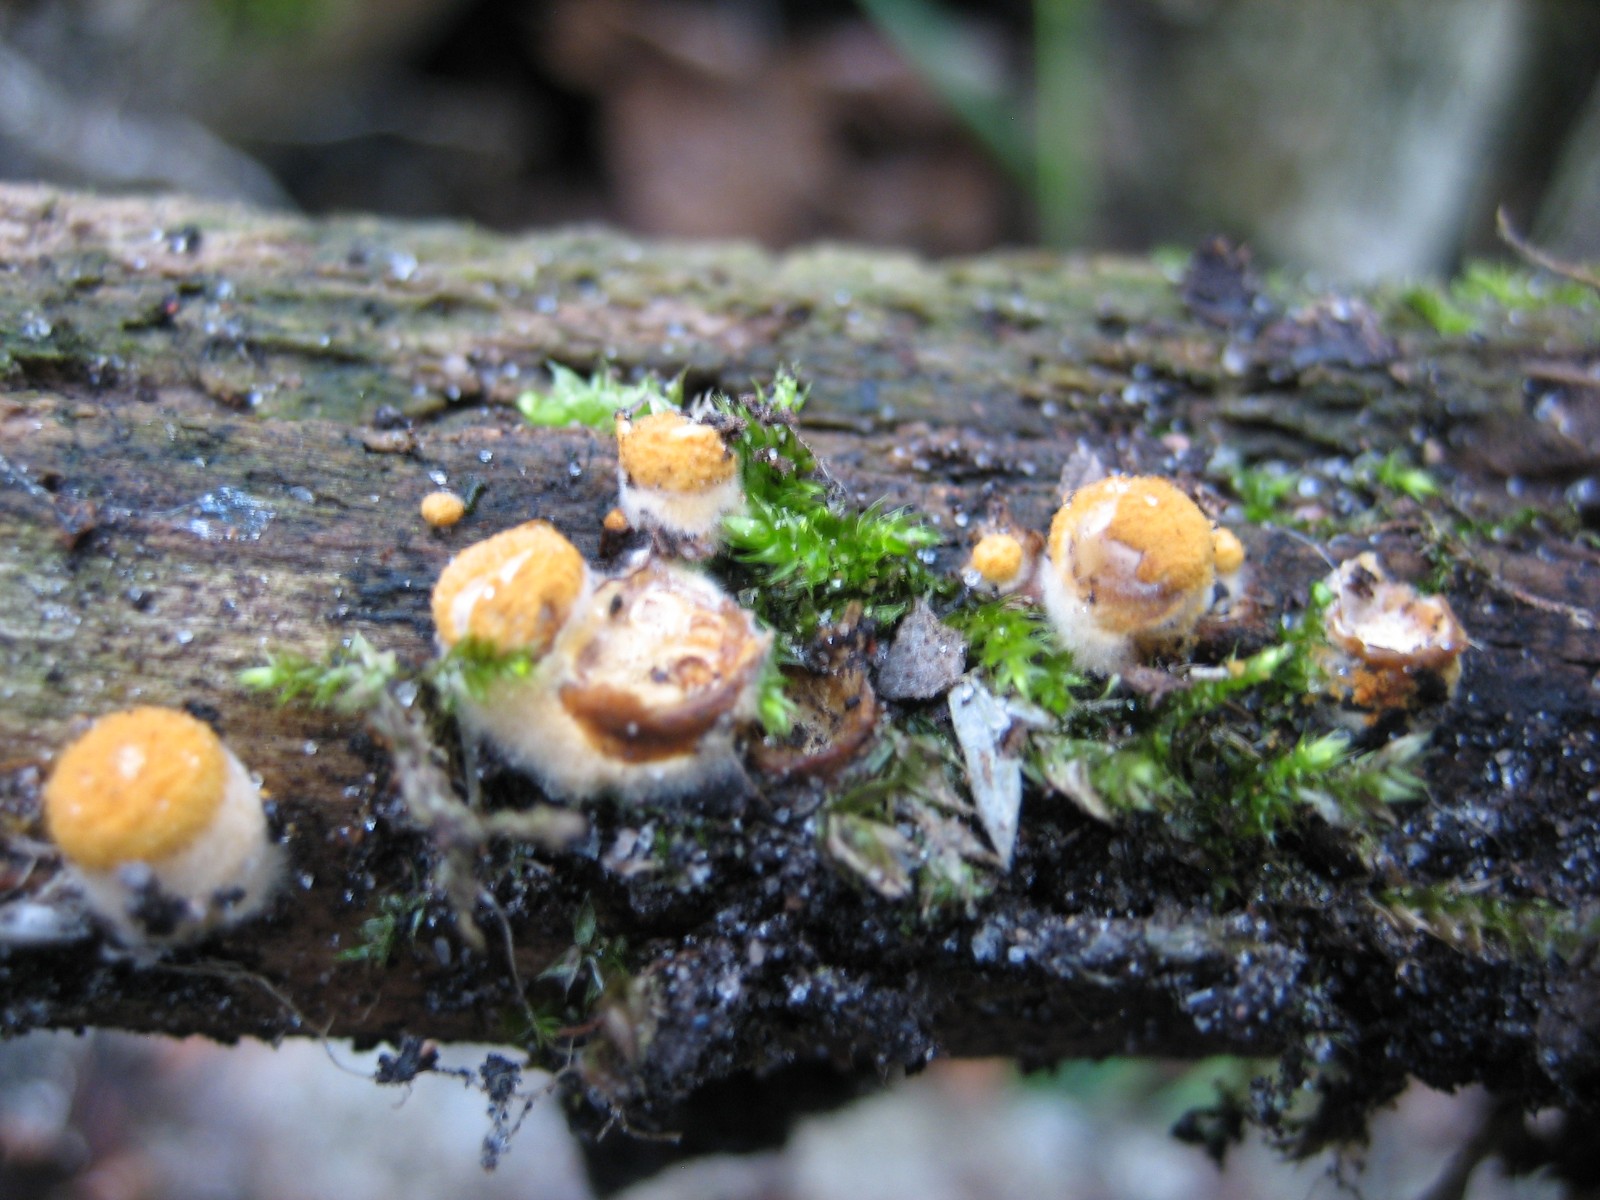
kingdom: Fungi
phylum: Basidiomycota
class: Agaricomycetes
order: Agaricales
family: Nidulariaceae
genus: Crucibulum
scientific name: Crucibulum crucibuliforme
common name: krukkesvamp
